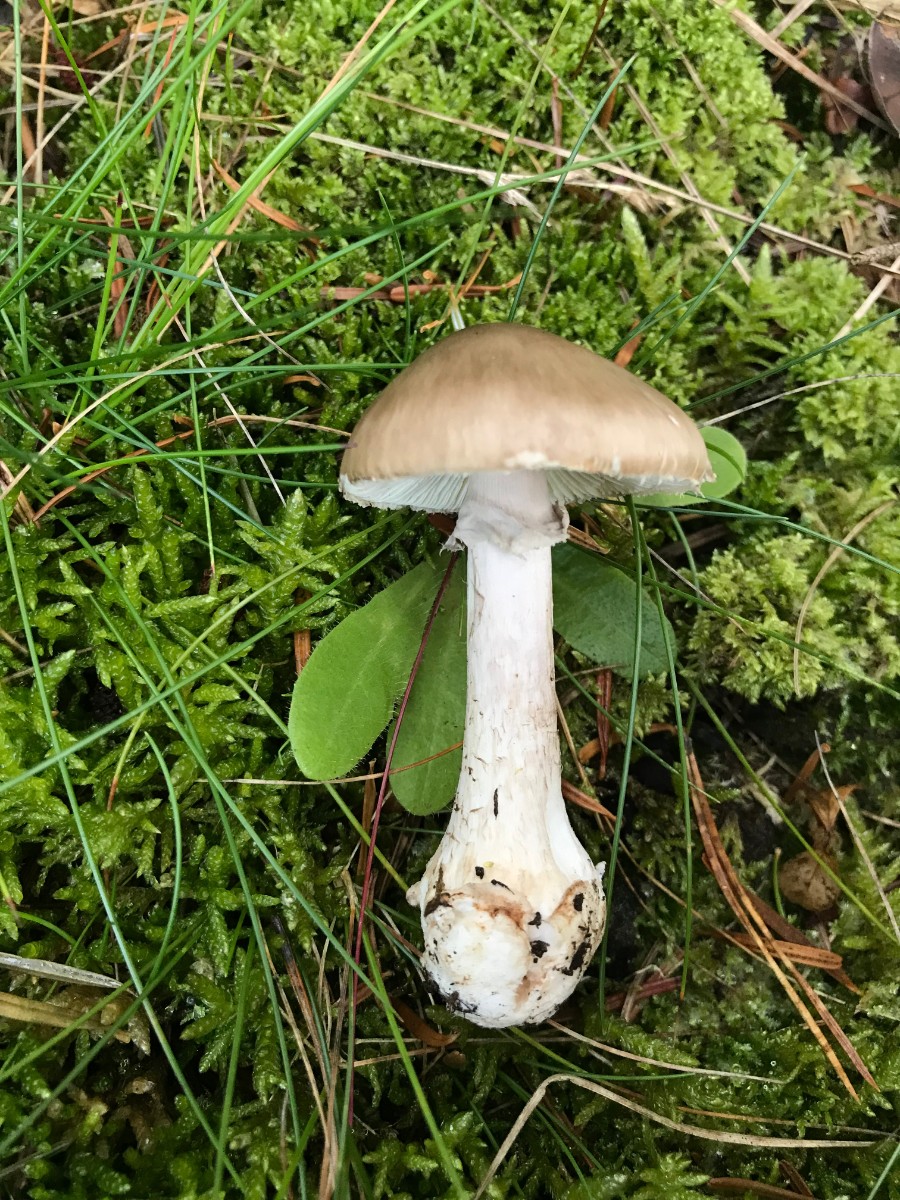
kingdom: Fungi
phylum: Basidiomycota
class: Agaricomycetes
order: Agaricales
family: Amanitaceae
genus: Amanita
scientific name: Amanita porphyria
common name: porfyr-fluesvamp
